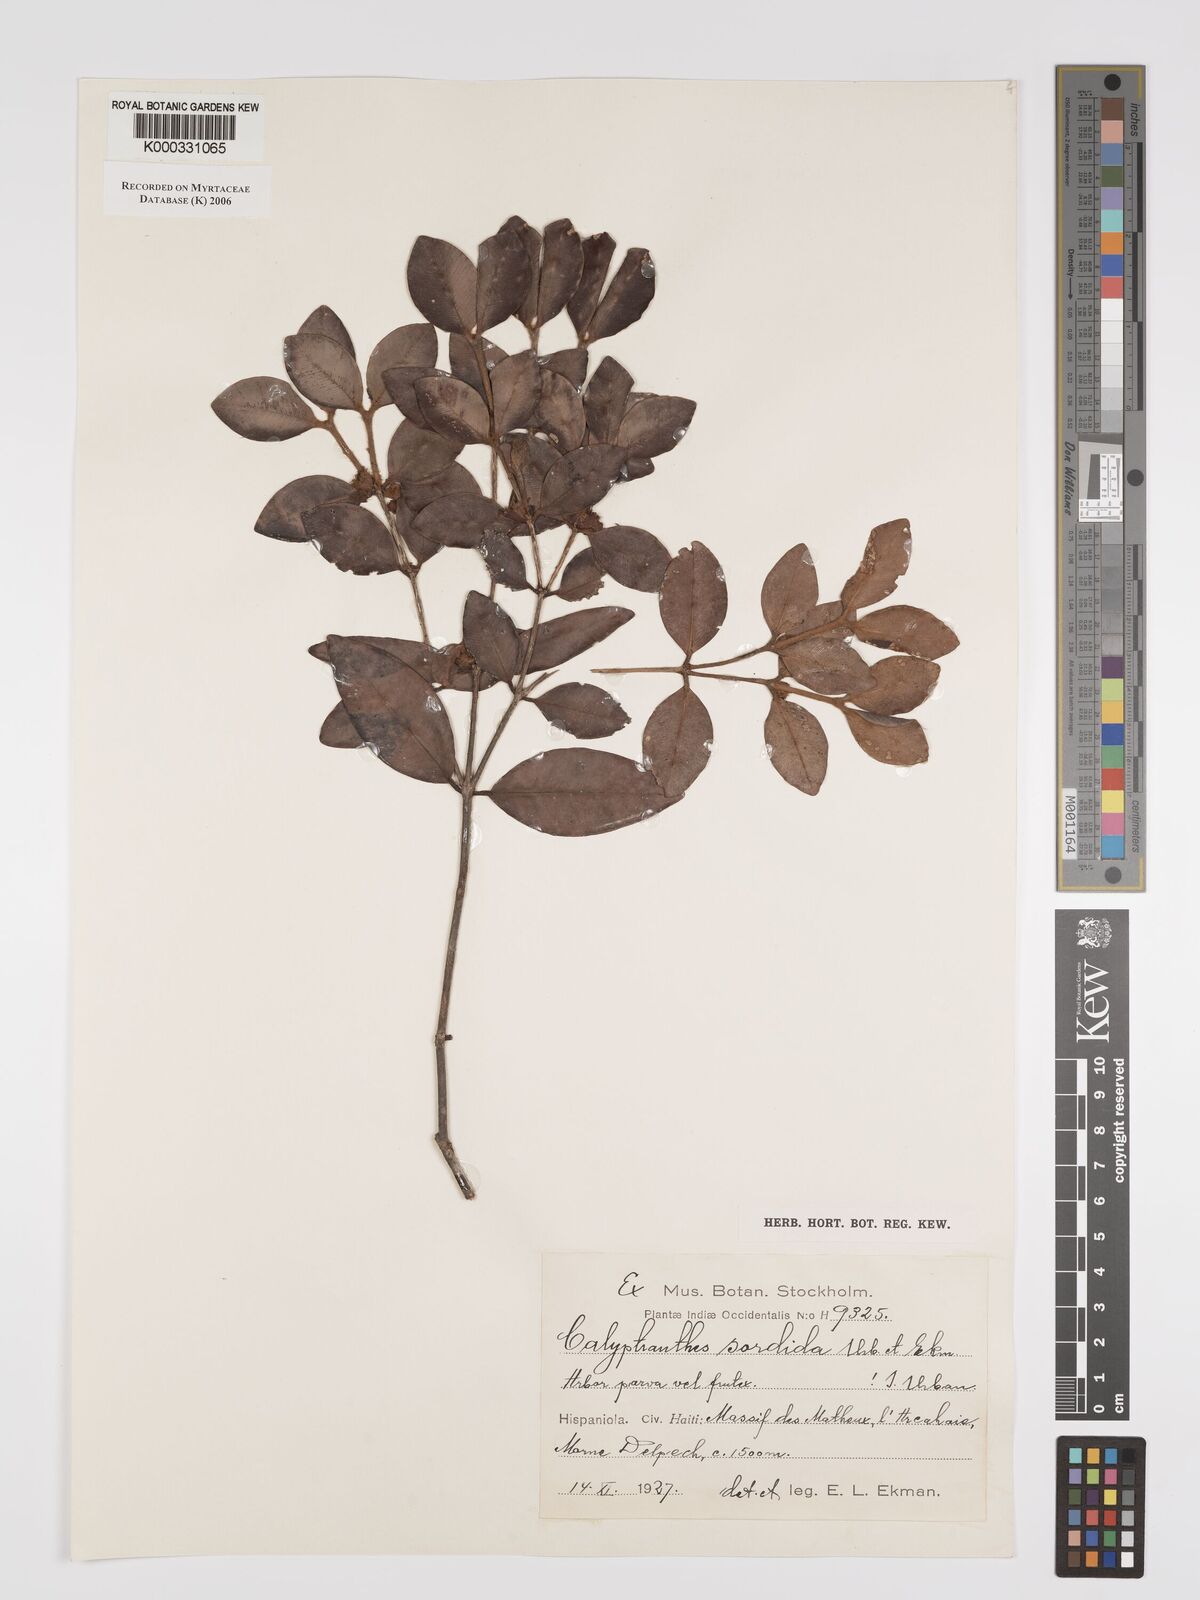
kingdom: Plantae
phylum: Tracheophyta
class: Magnoliopsida
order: Myrtales
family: Myrtaceae
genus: Myrcia
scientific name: Myrcia sordida
